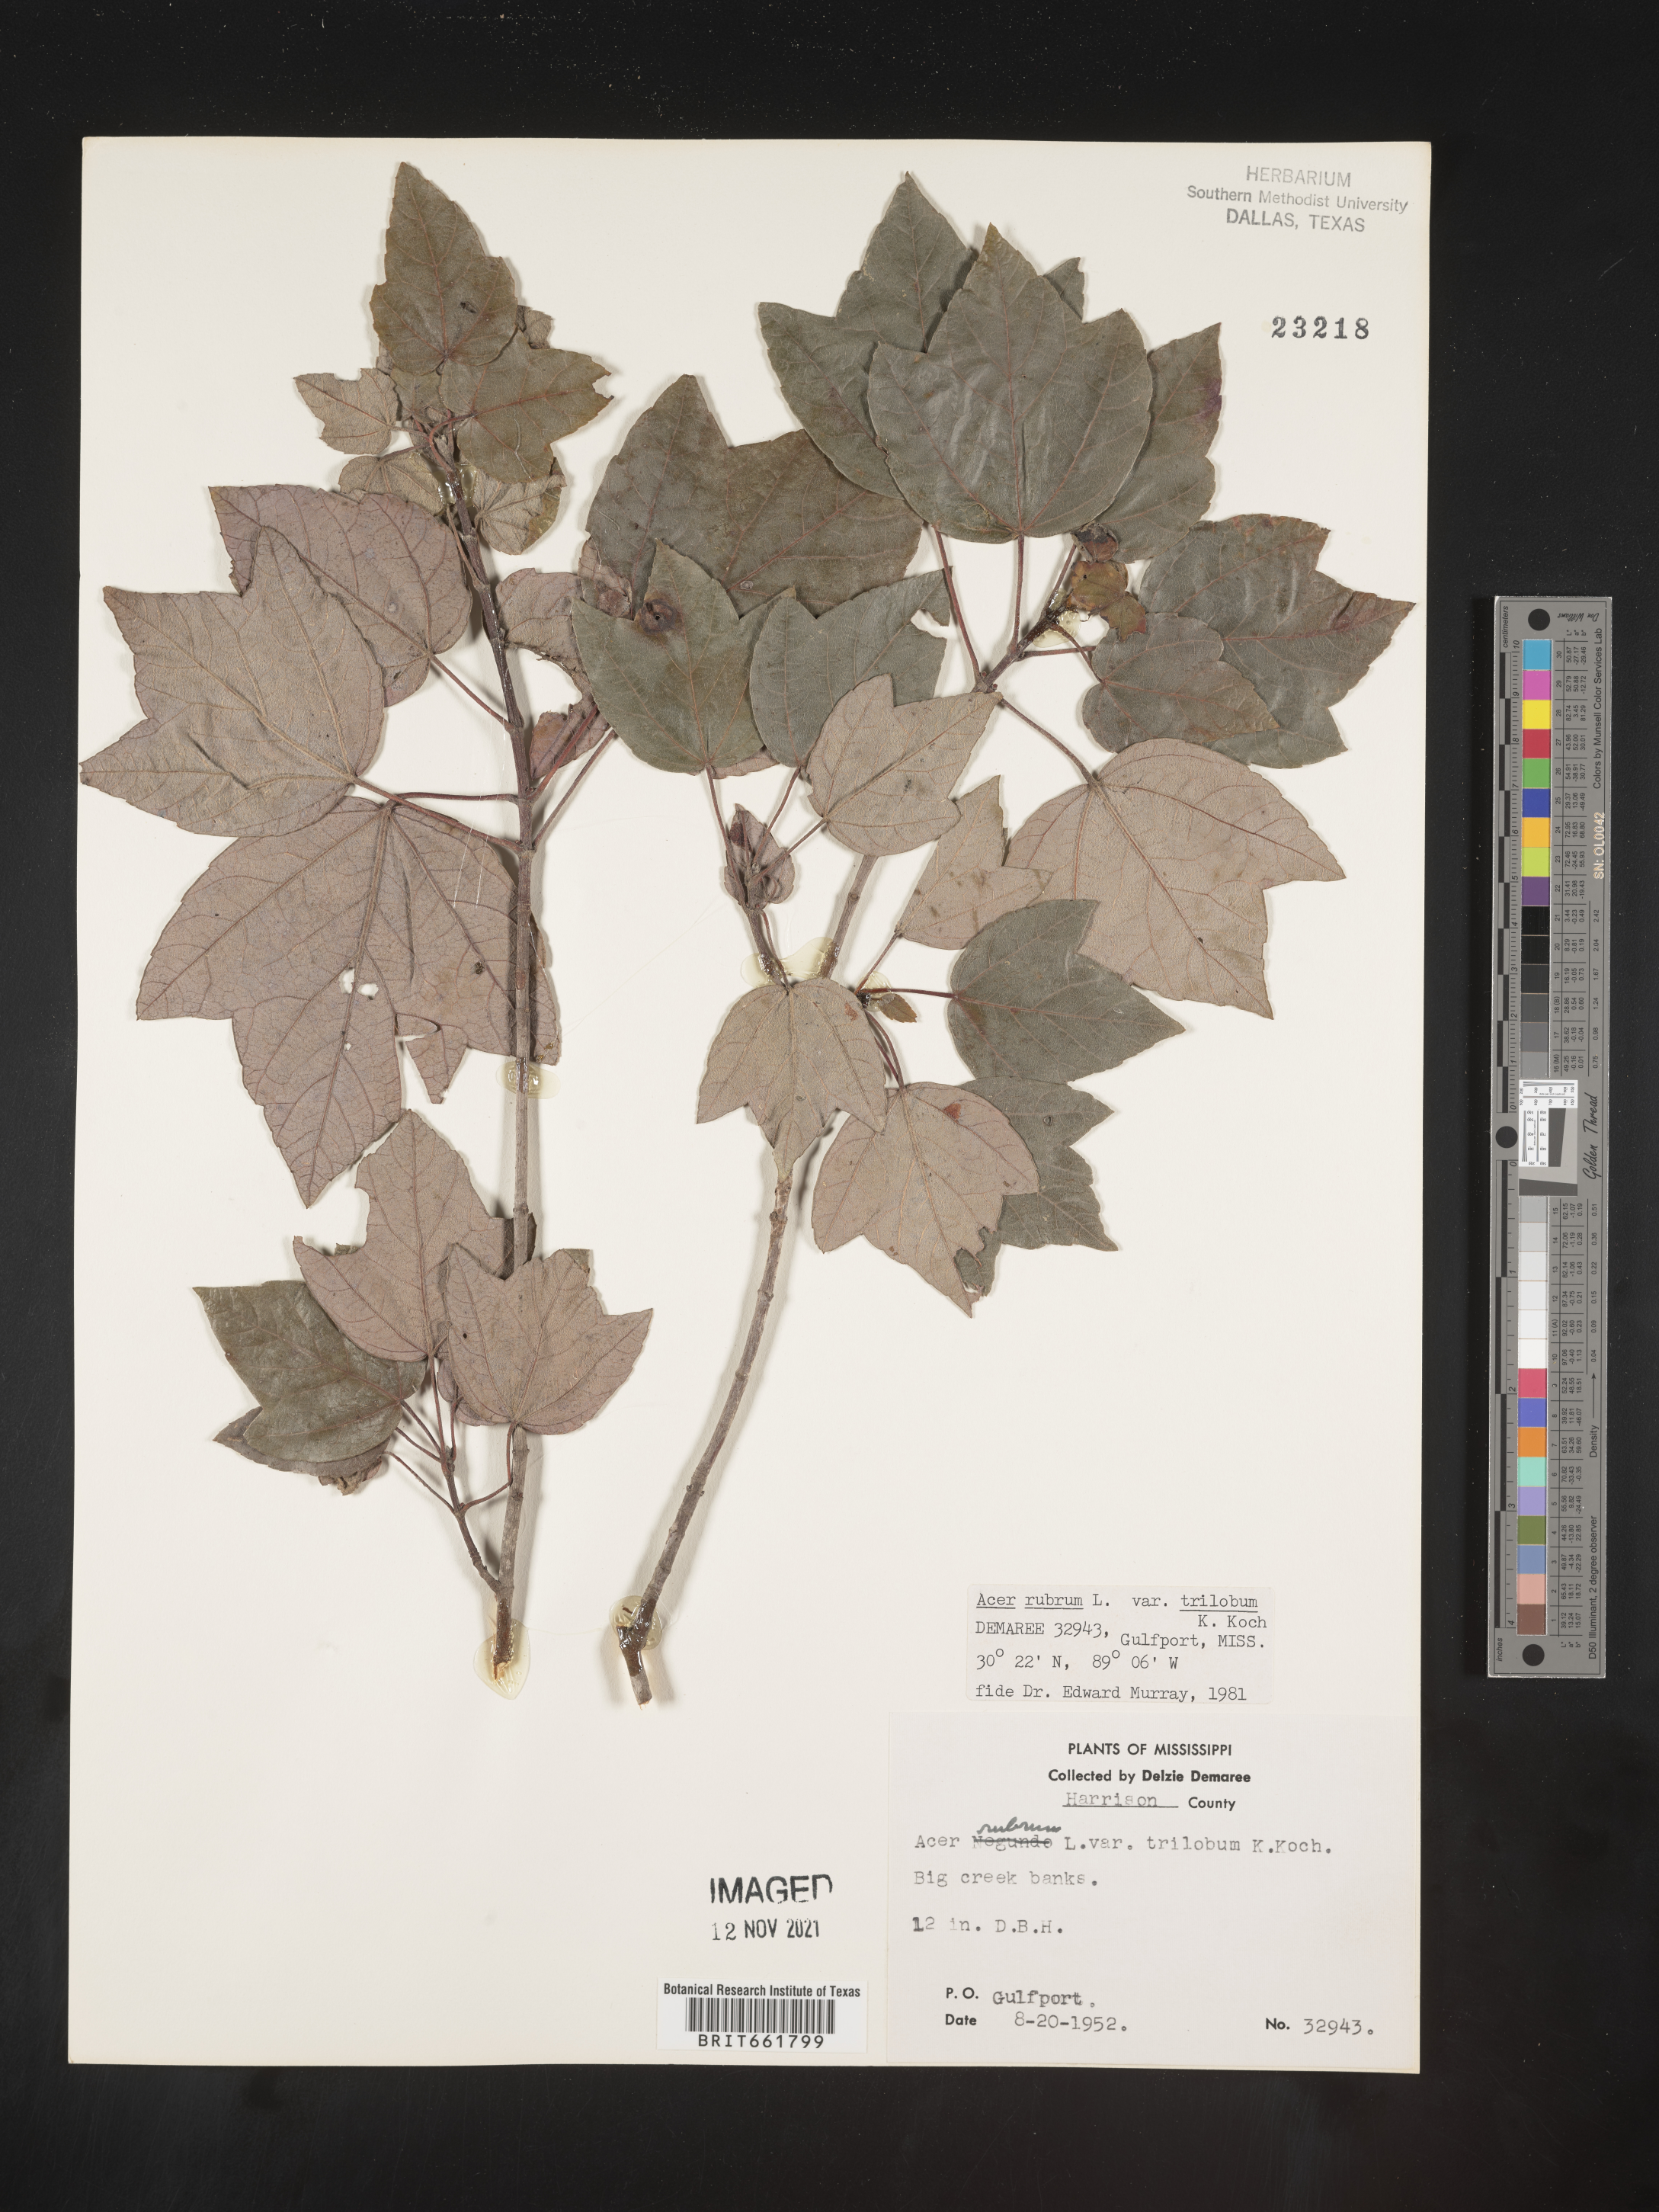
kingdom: Plantae
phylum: Tracheophyta
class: Magnoliopsida
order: Sapindales
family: Sapindaceae
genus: Acer
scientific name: Acer rubrum
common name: Red maple
